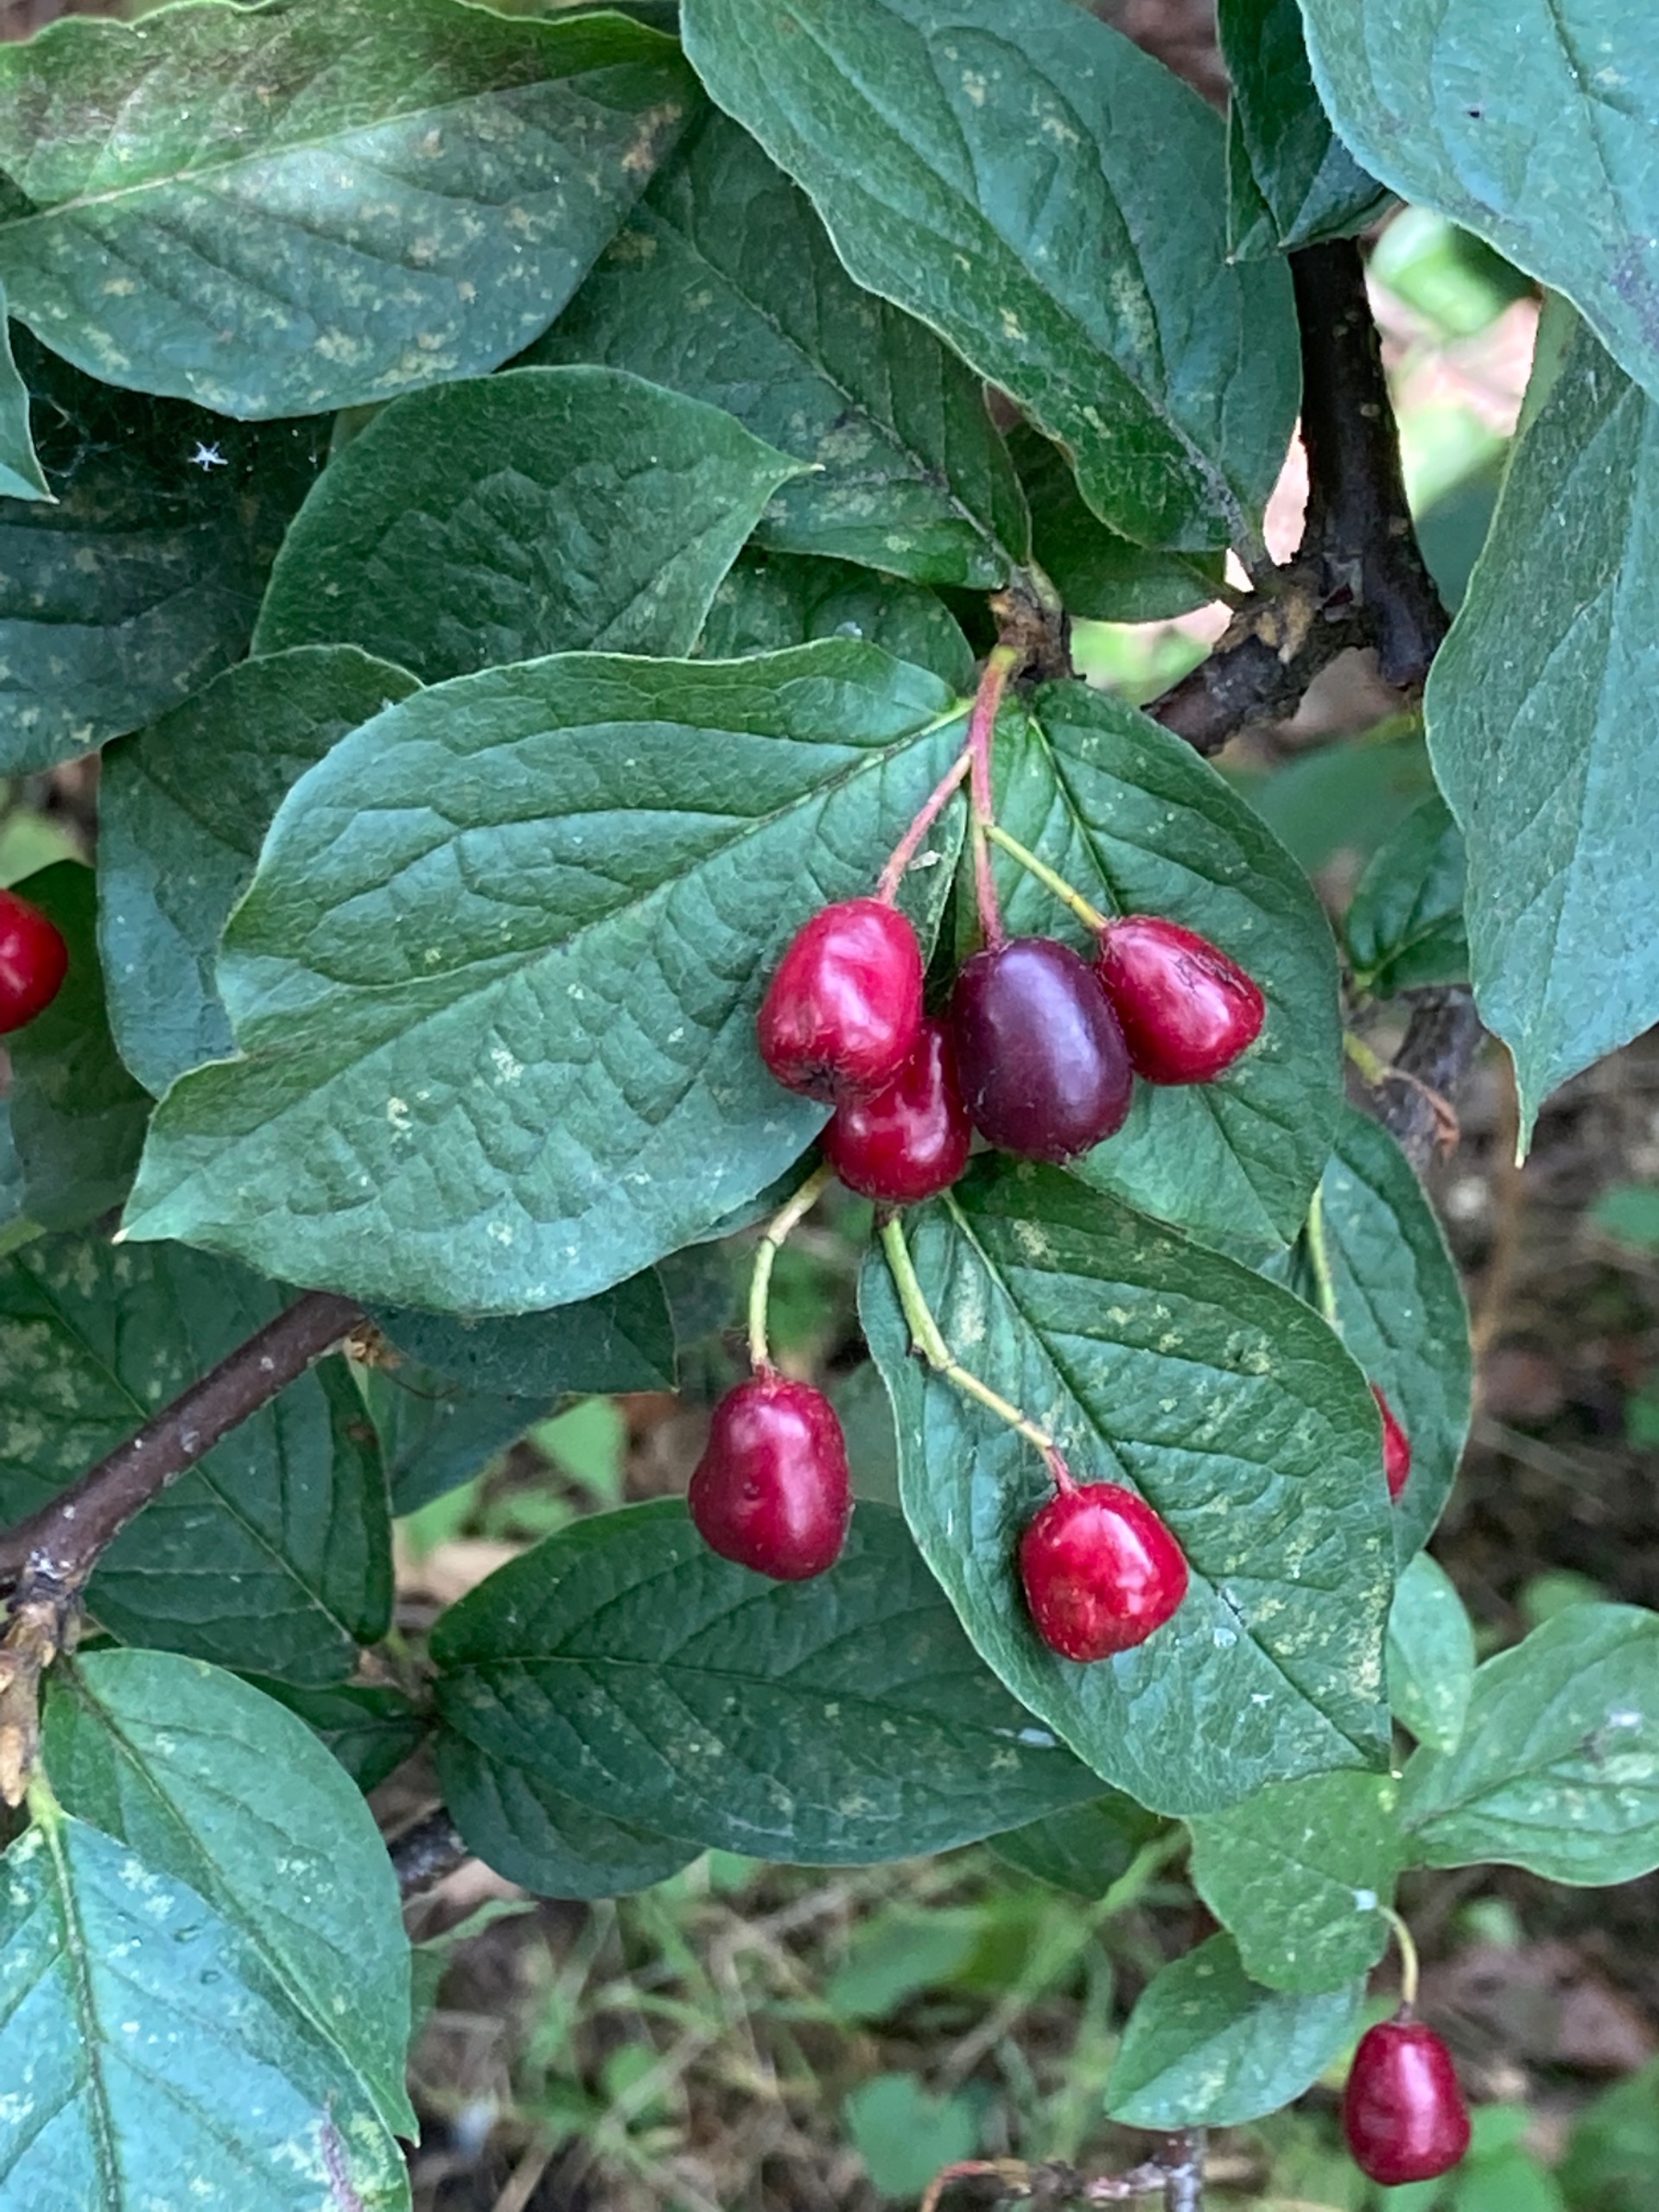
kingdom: Plantae
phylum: Tracheophyta
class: Magnoliopsida
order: Rosales
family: Rosaceae
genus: Cotoneaster
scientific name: Cotoneaster acutifolius
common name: Glans-dværgmispel
